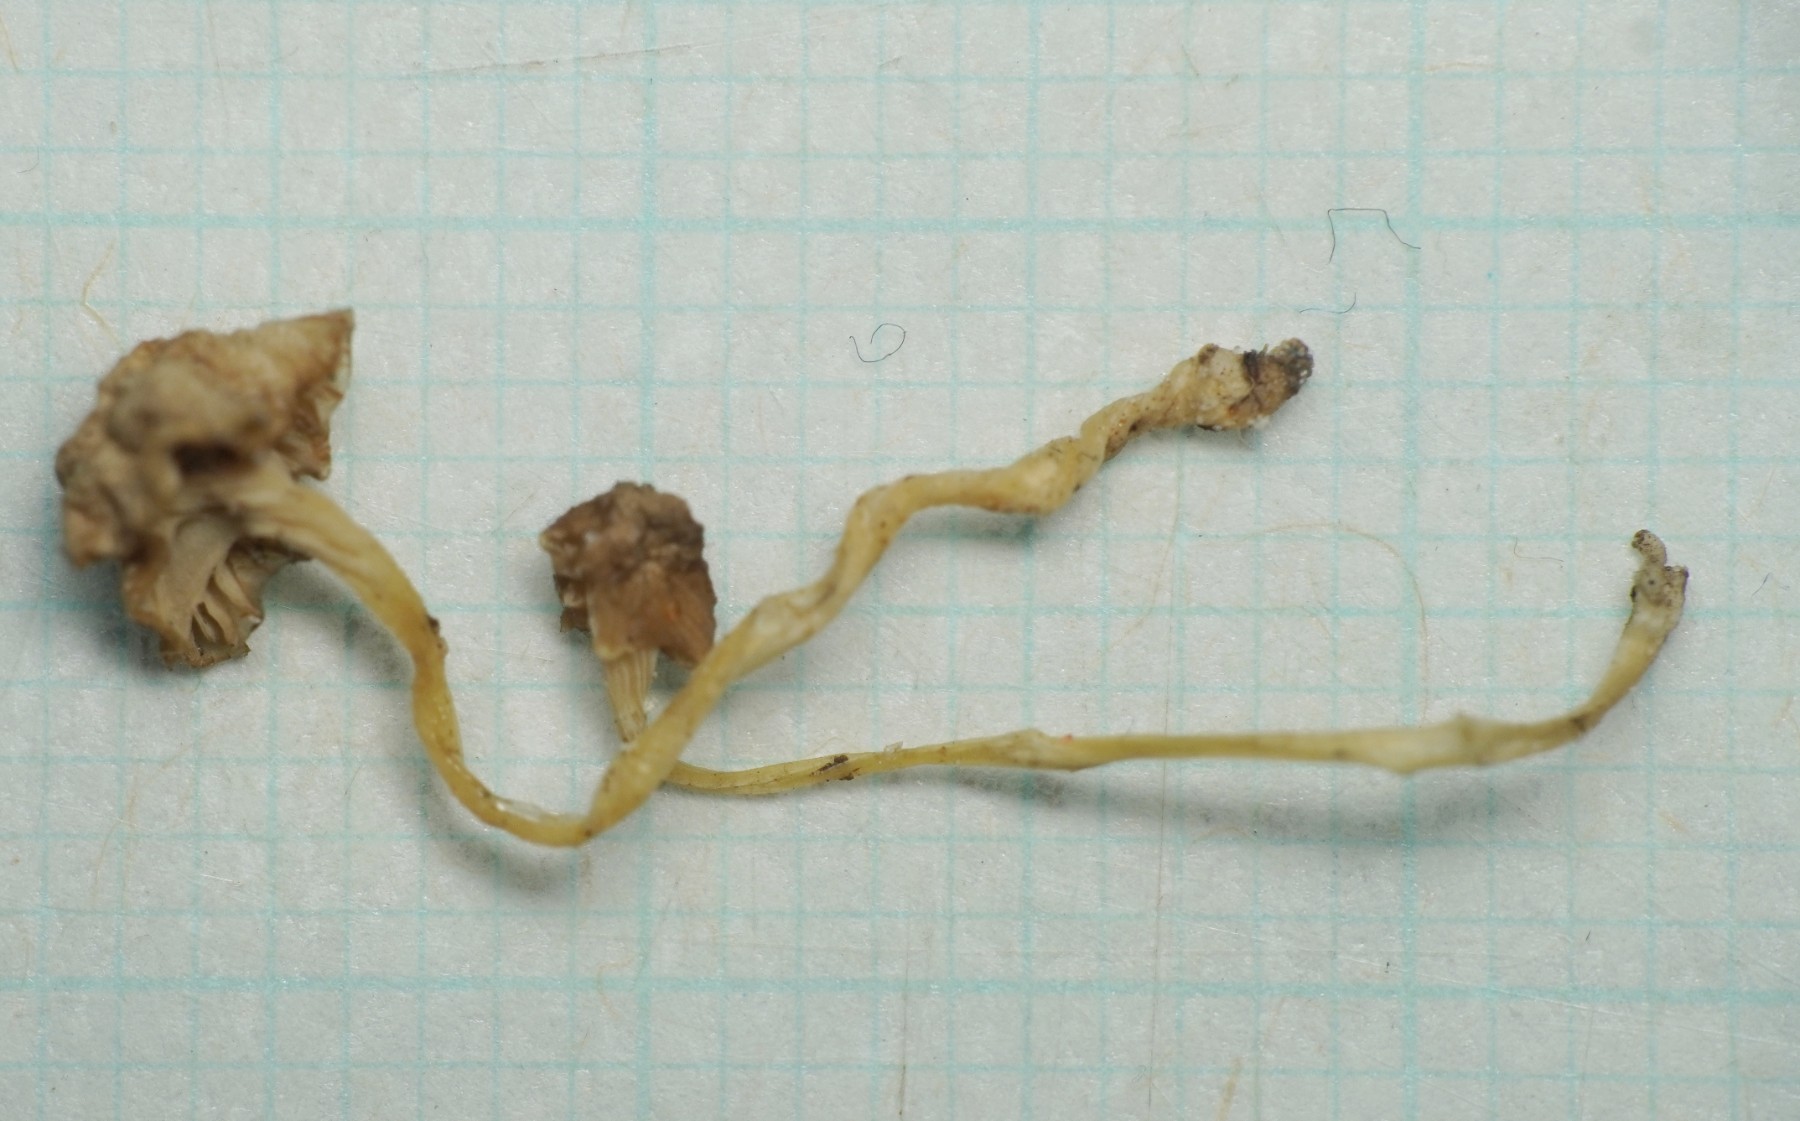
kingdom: Fungi
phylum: Basidiomycota
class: Agaricomycetes
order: Agaricales
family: Mycenaceae
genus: Hemimycena
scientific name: Hemimycena mairei
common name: voks-huesvamp
